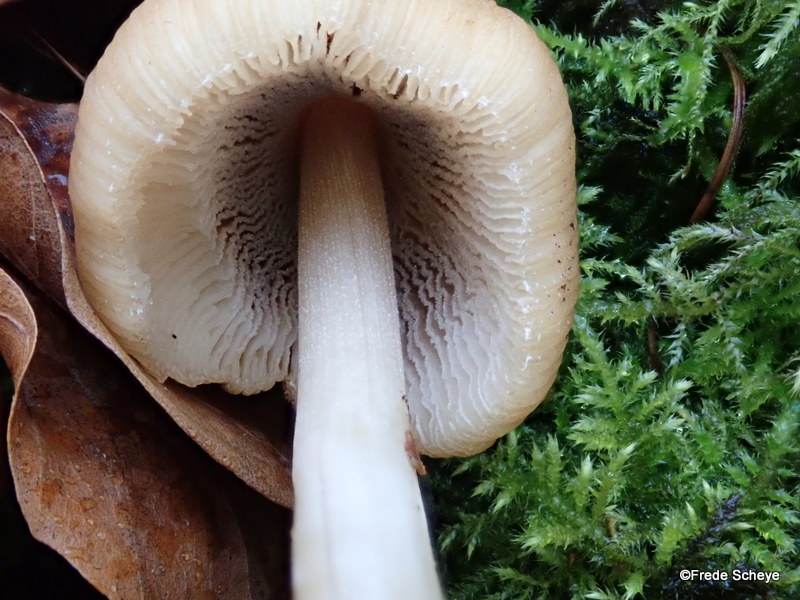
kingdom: Fungi
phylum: Basidiomycota
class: Agaricomycetes
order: Agaricales
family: Psathyrellaceae
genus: Coprinellus
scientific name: Coprinellus micaceus
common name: glimmer-blækhat
